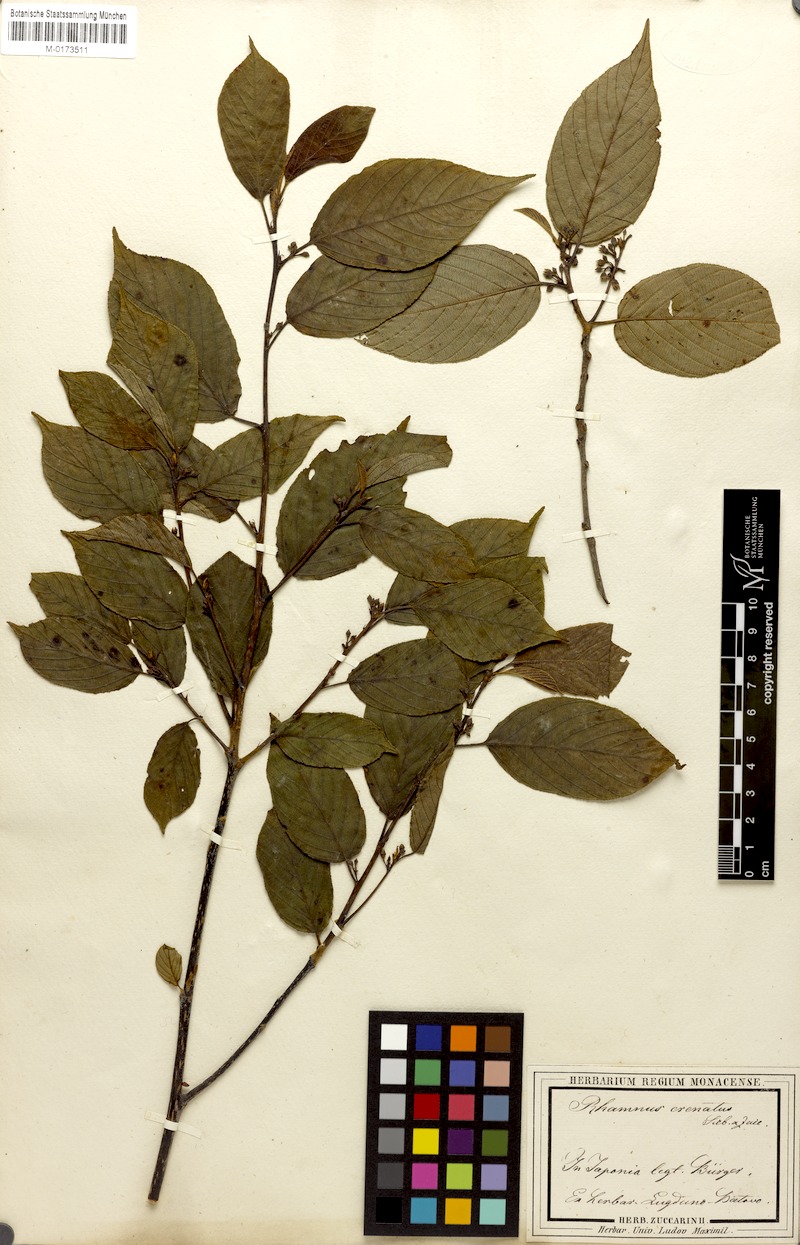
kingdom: Plantae
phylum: Tracheophyta
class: Magnoliopsida
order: Rosales
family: Rhamnaceae
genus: Frangula
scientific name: Frangula crenata
